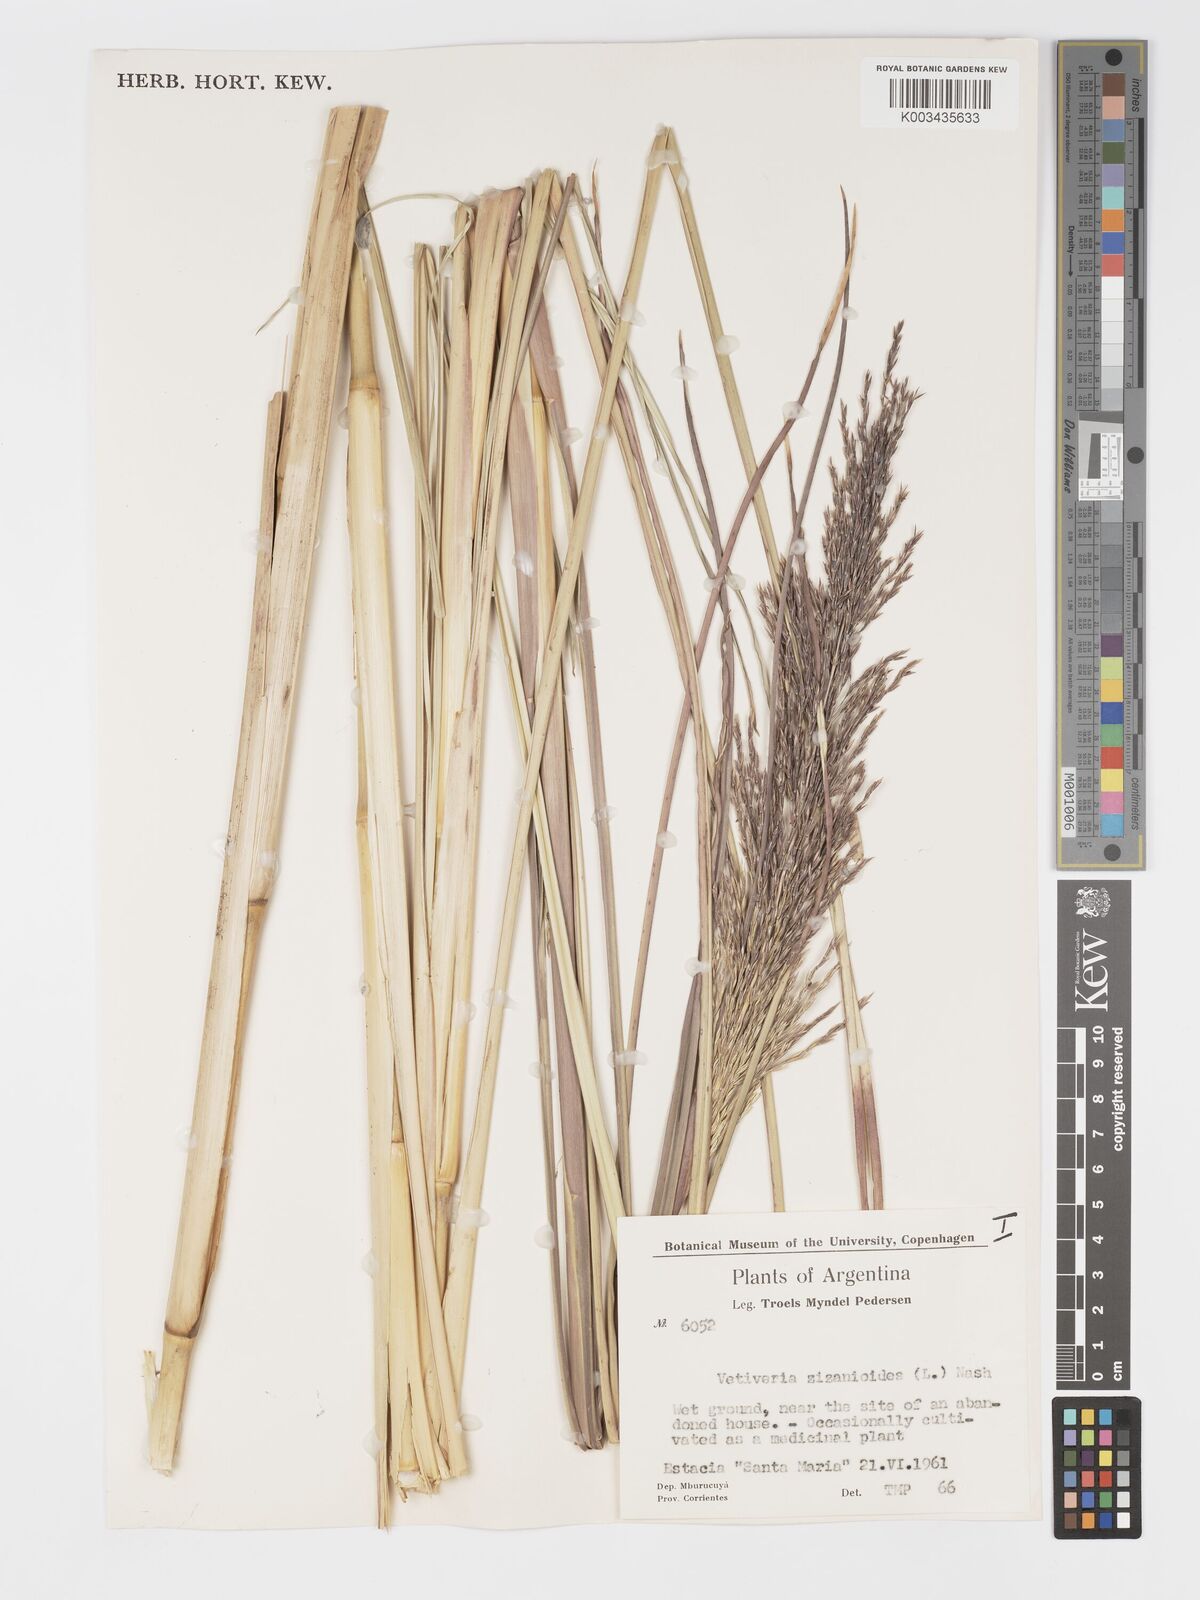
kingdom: Plantae
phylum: Tracheophyta
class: Liliopsida
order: Poales
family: Poaceae
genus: Chrysopogon
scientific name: Chrysopogon zizanioides
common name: False beardgrass
